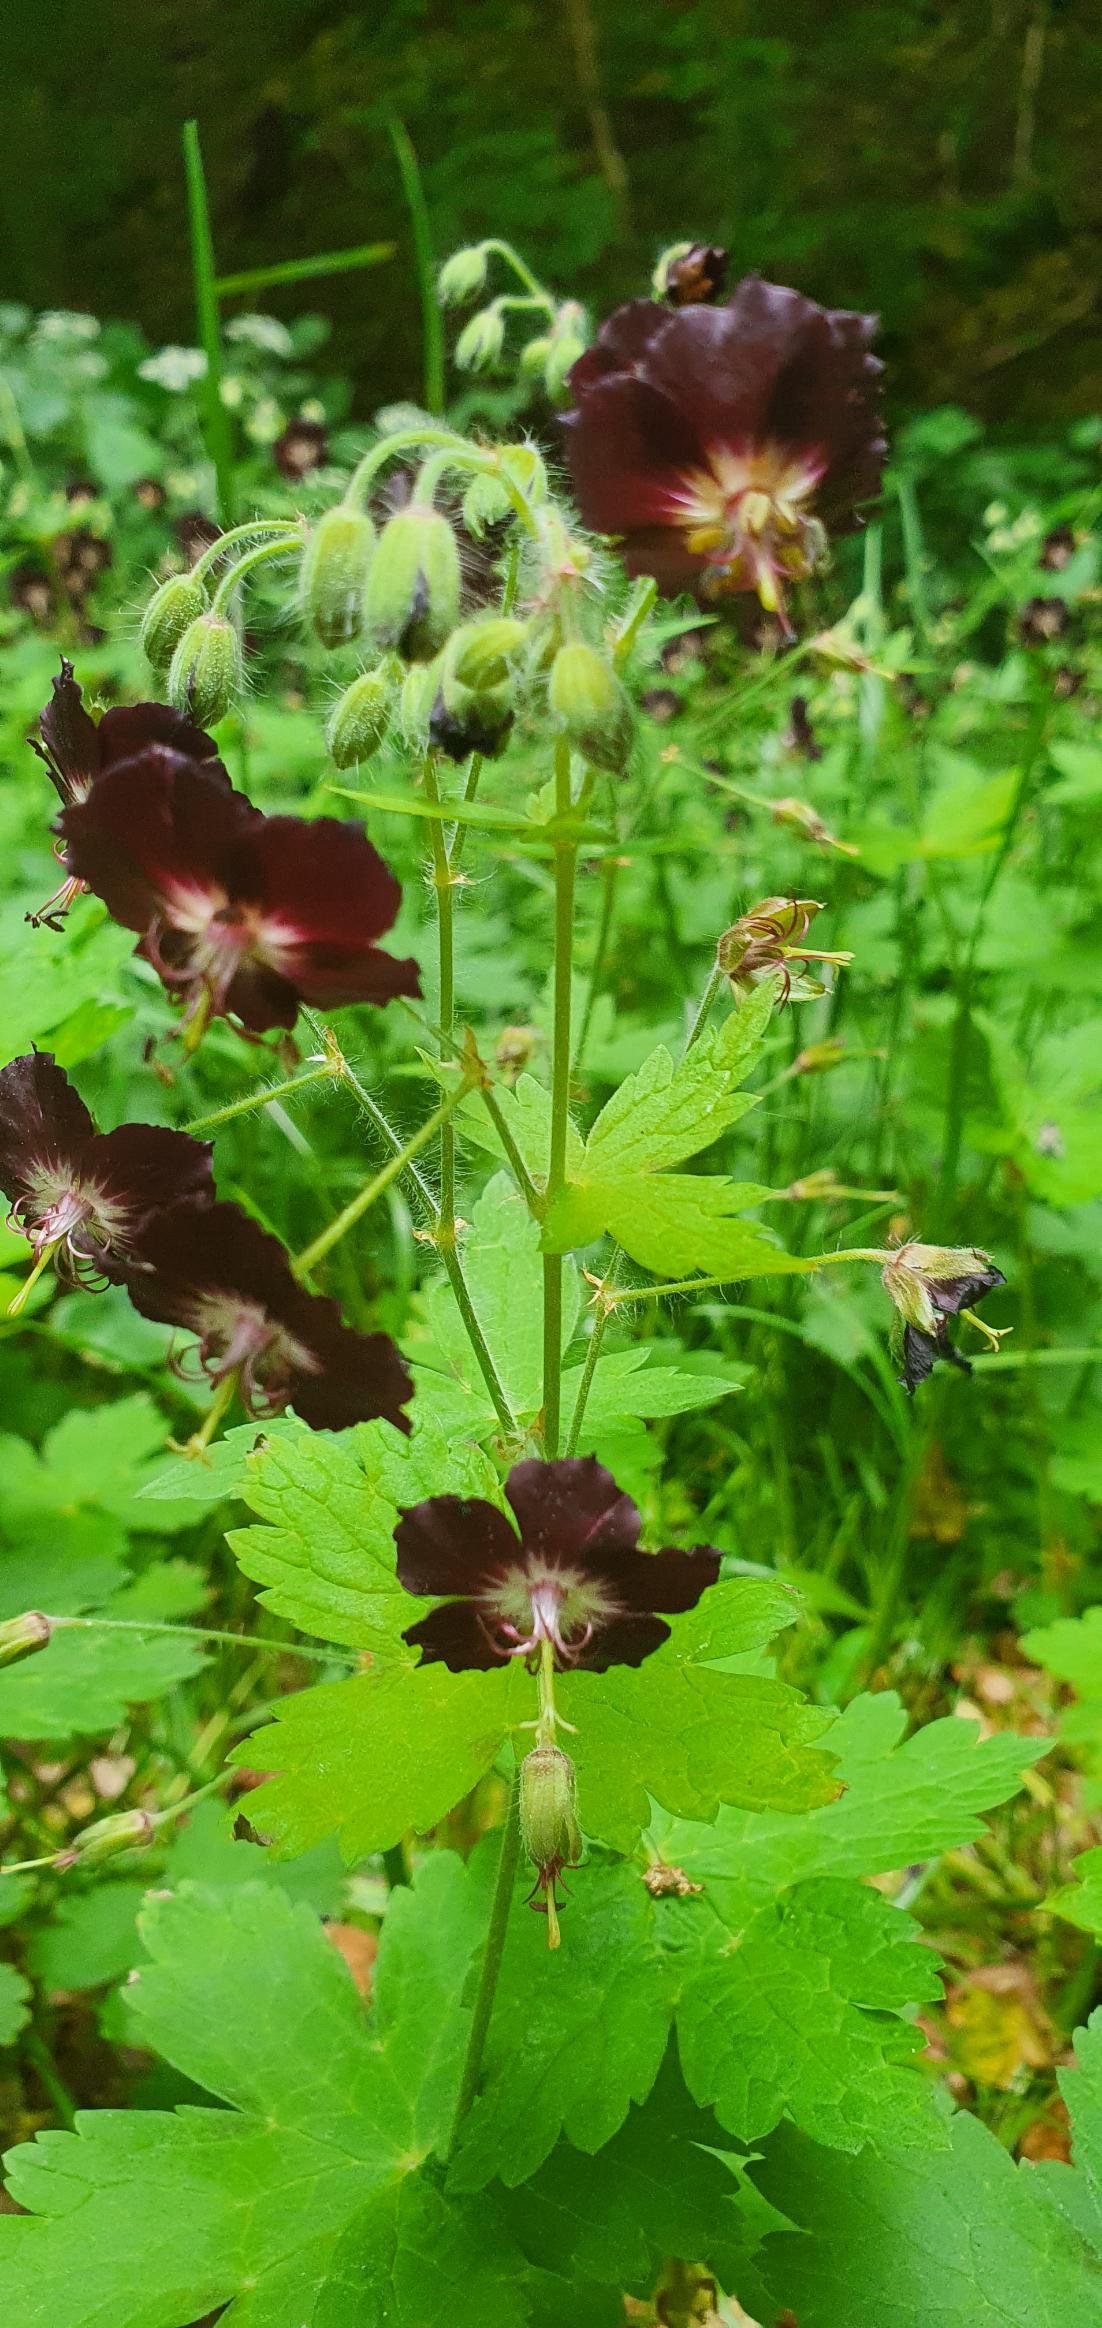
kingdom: Plantae
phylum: Tracheophyta
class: Magnoliopsida
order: Geraniales
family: Geraniaceae
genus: Geranium
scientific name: Geranium phaeum
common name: Bølgekronet storkenæb
